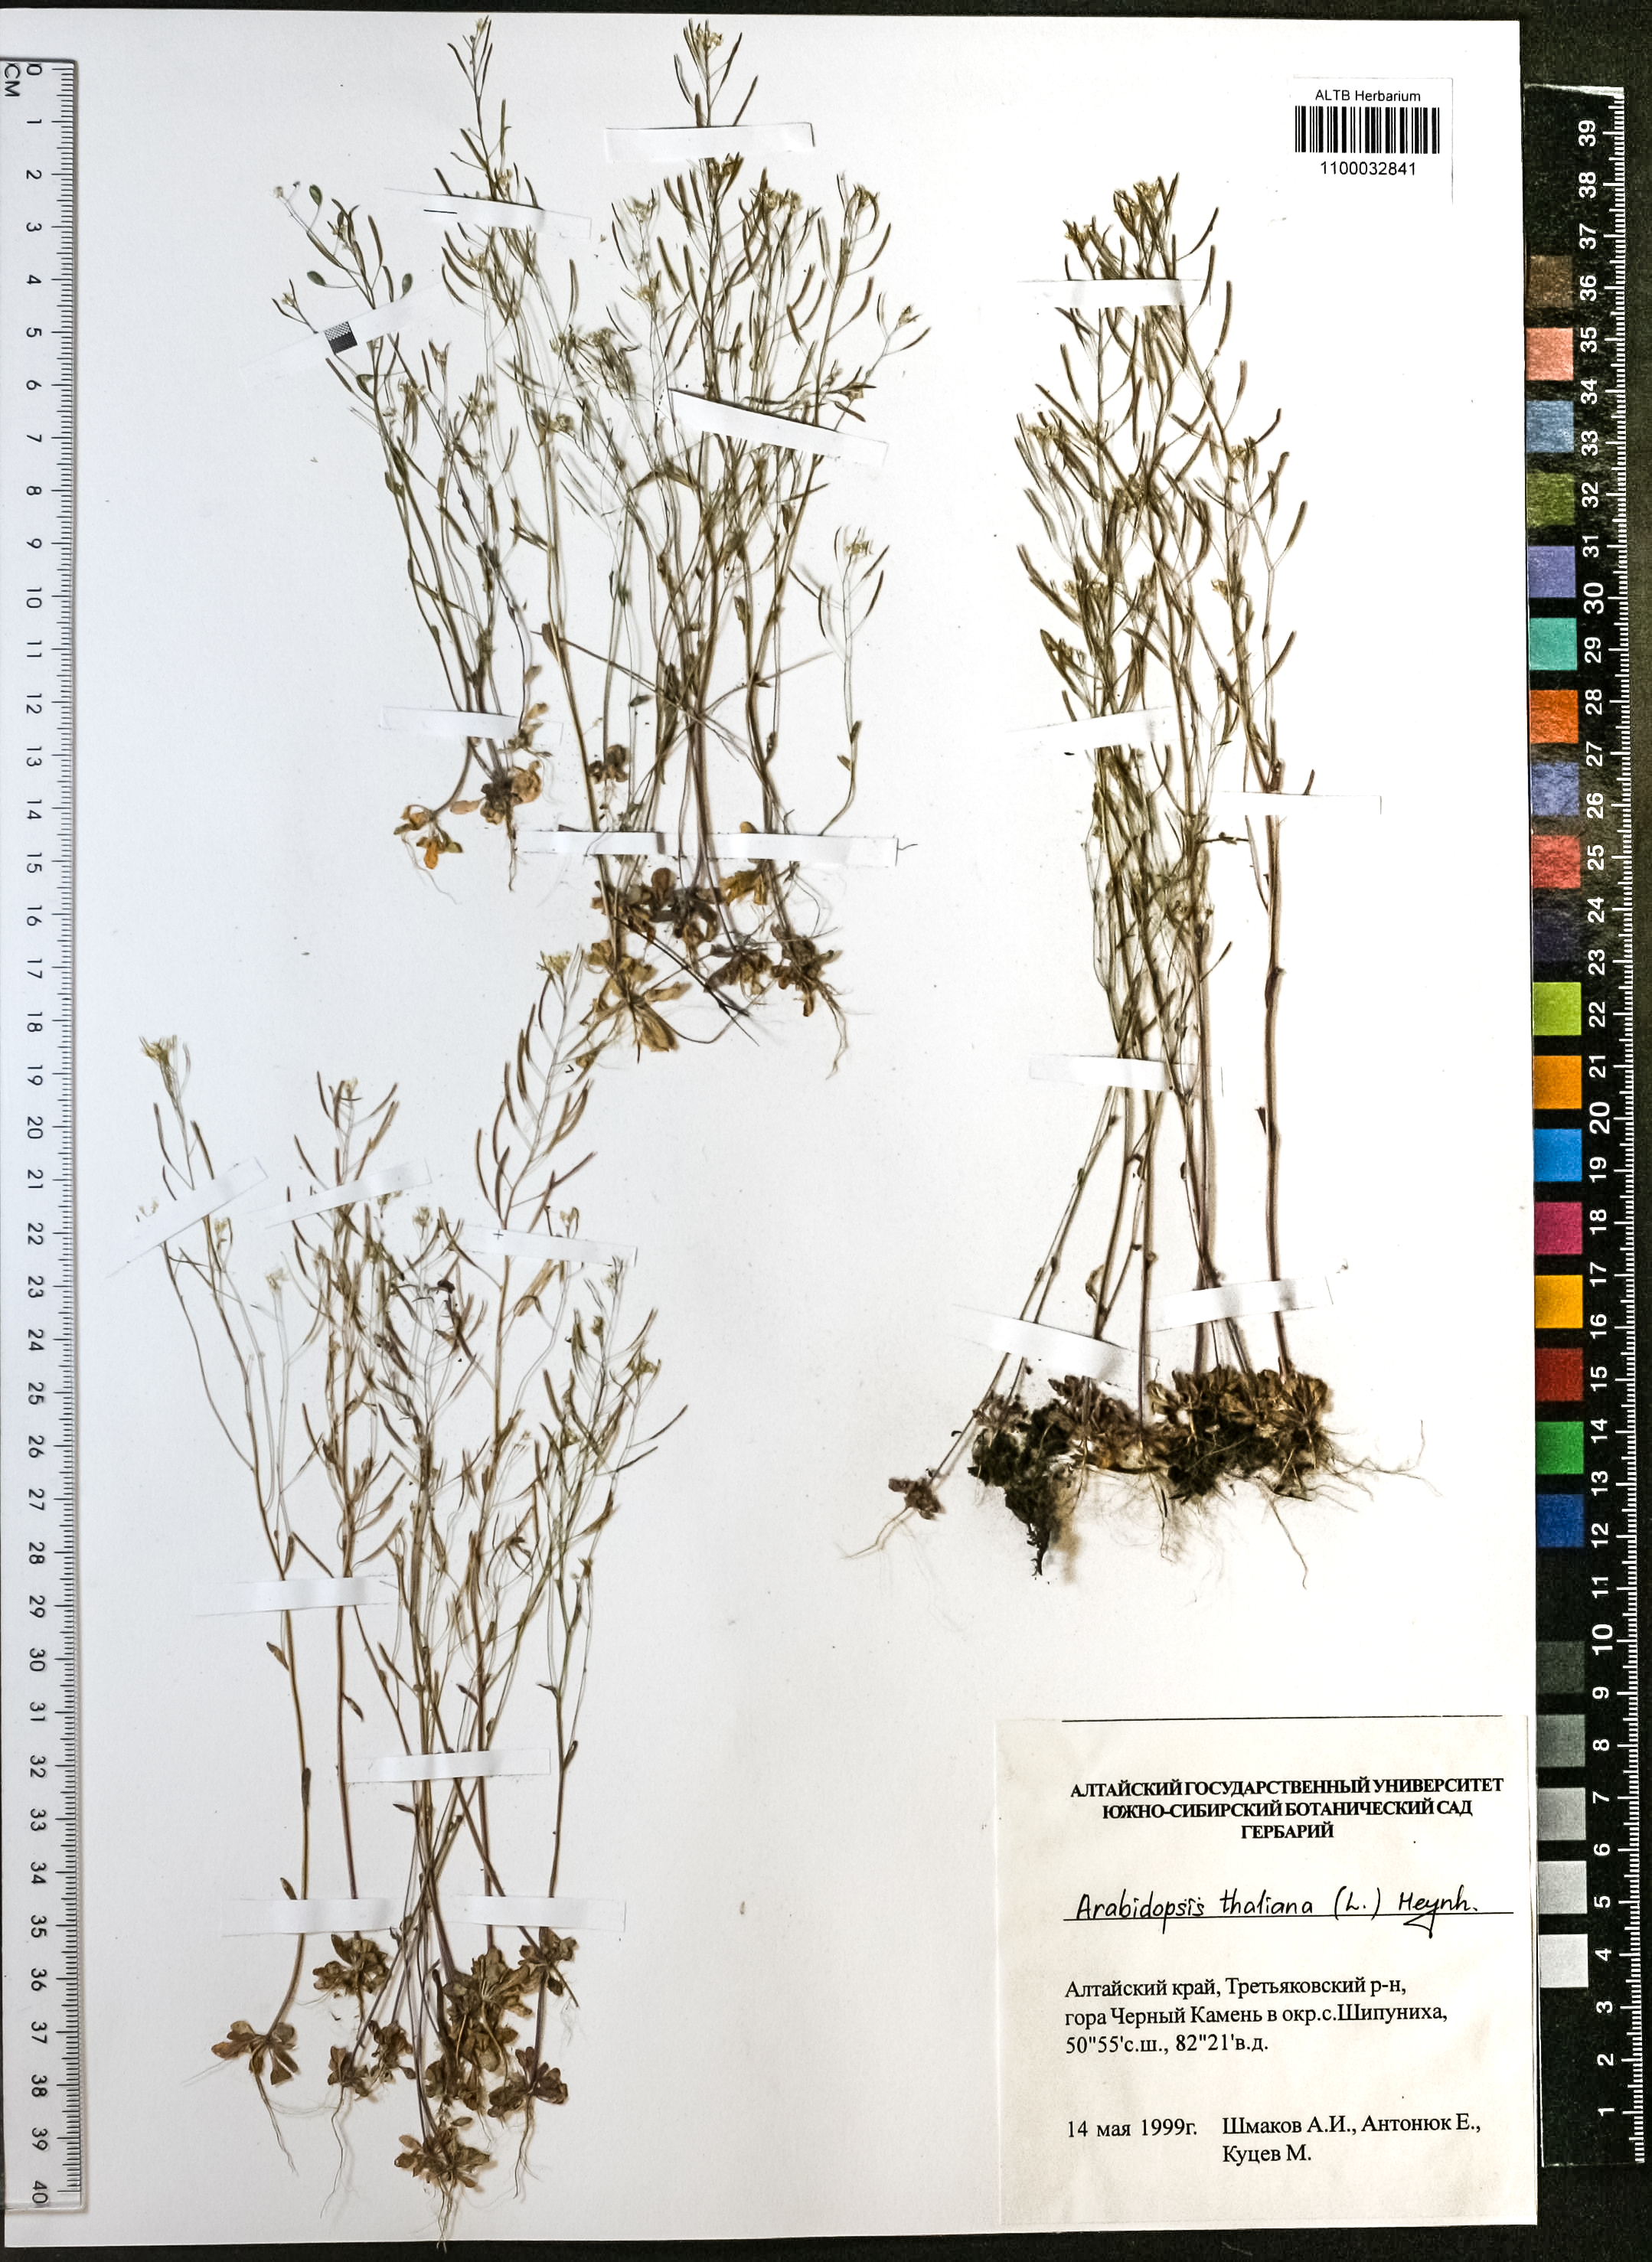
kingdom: Plantae
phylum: Tracheophyta
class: Magnoliopsida
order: Brassicales
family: Brassicaceae
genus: Arabidopsis
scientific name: Arabidopsis thaliana
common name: Thale cress
